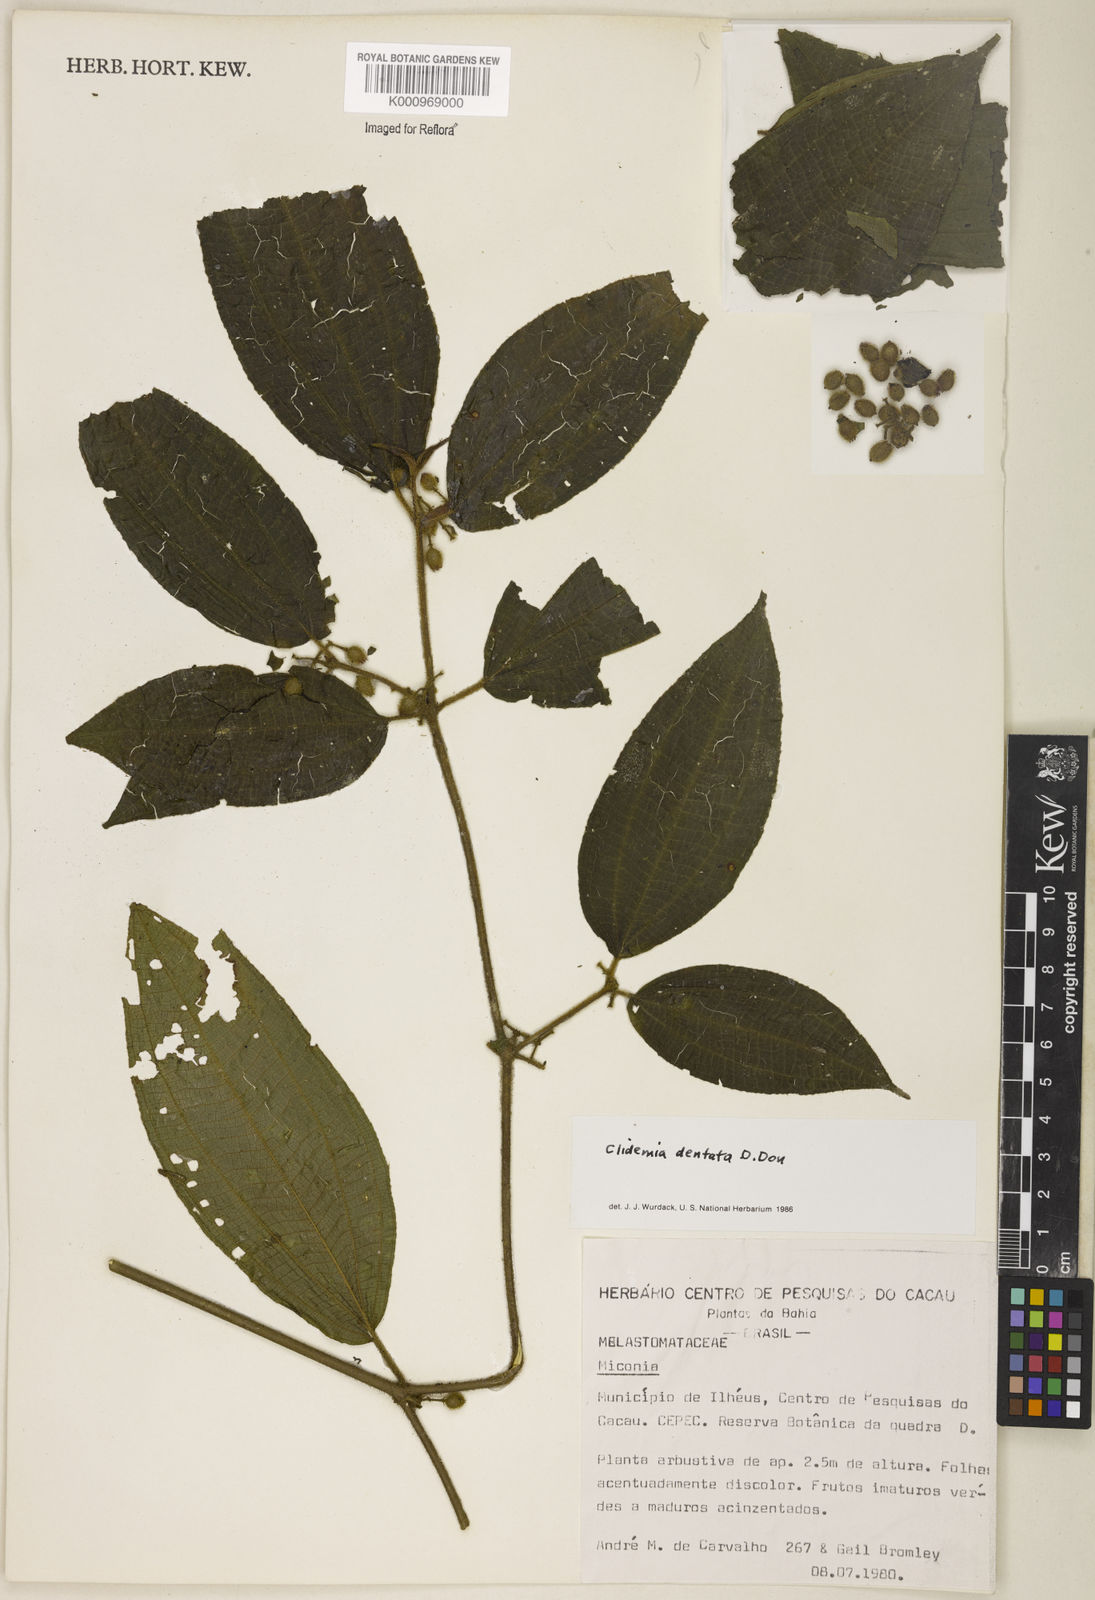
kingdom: Plantae
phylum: Tracheophyta
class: Magnoliopsida
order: Myrtales
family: Melastomataceae
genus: Miconia
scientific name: Miconia dentata
